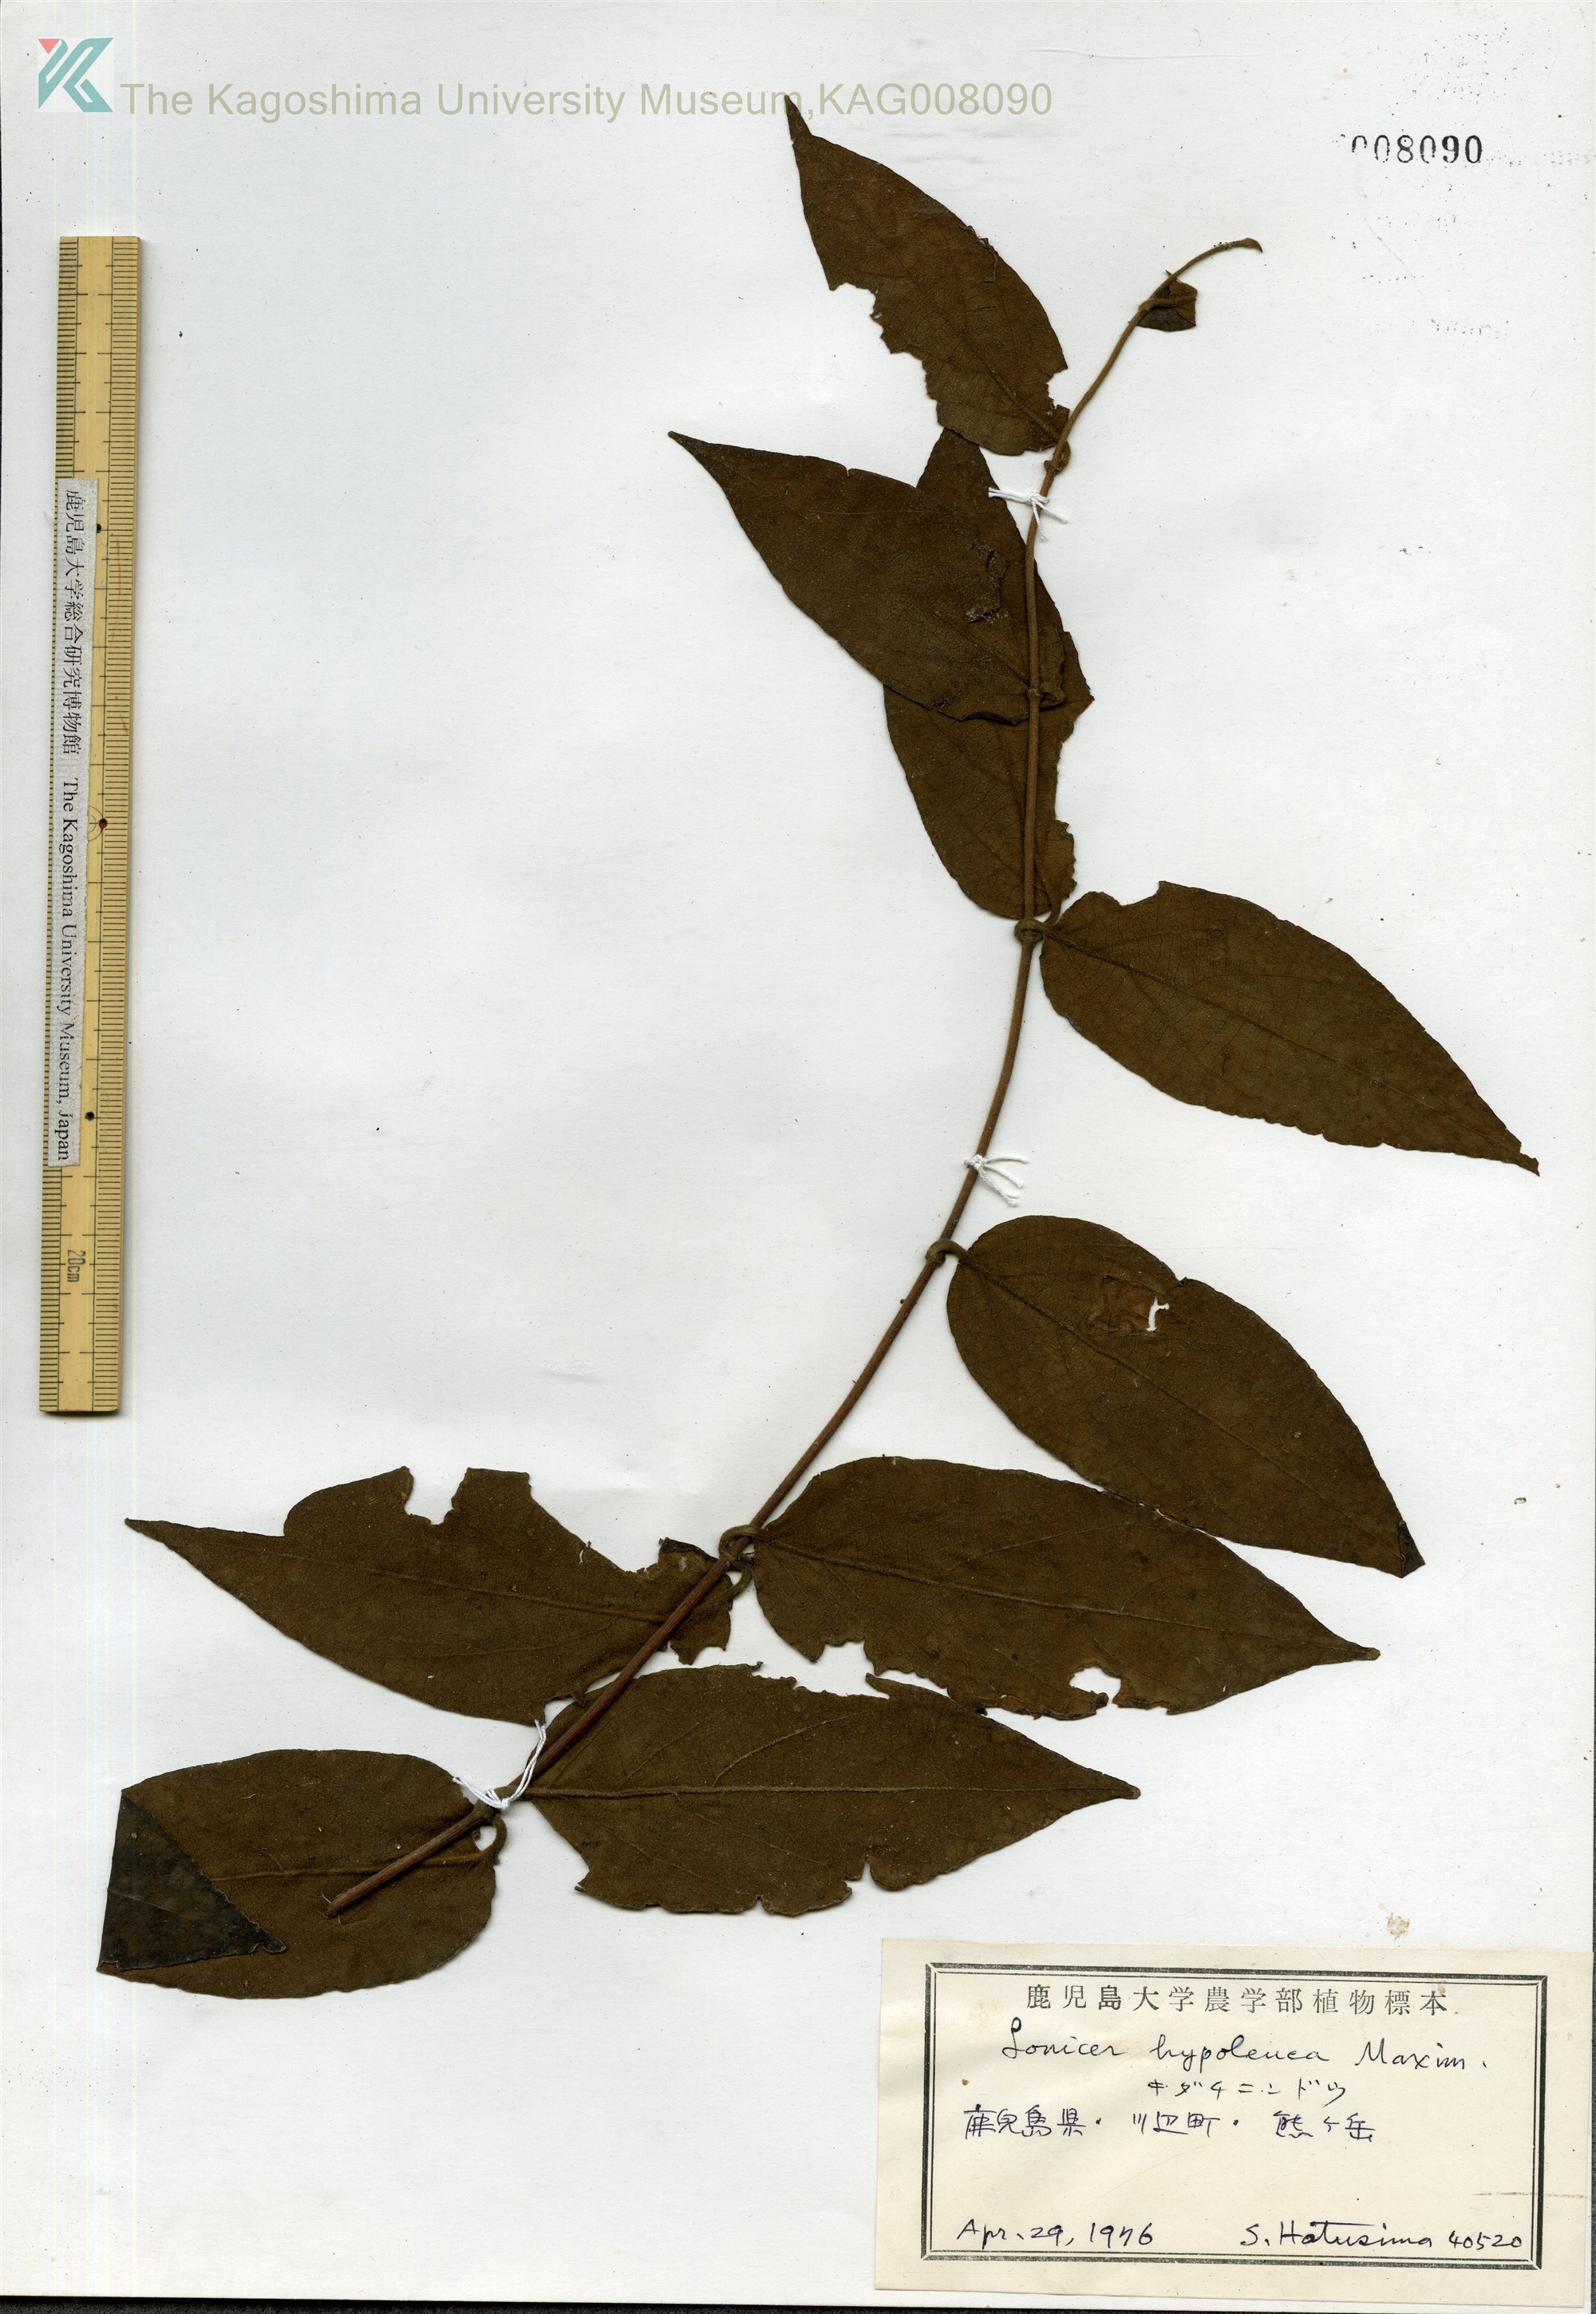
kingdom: Plantae
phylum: Tracheophyta
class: Magnoliopsida
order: Dipsacales
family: Caprifoliaceae
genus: Lonicera
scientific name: Lonicera hypoglauca
